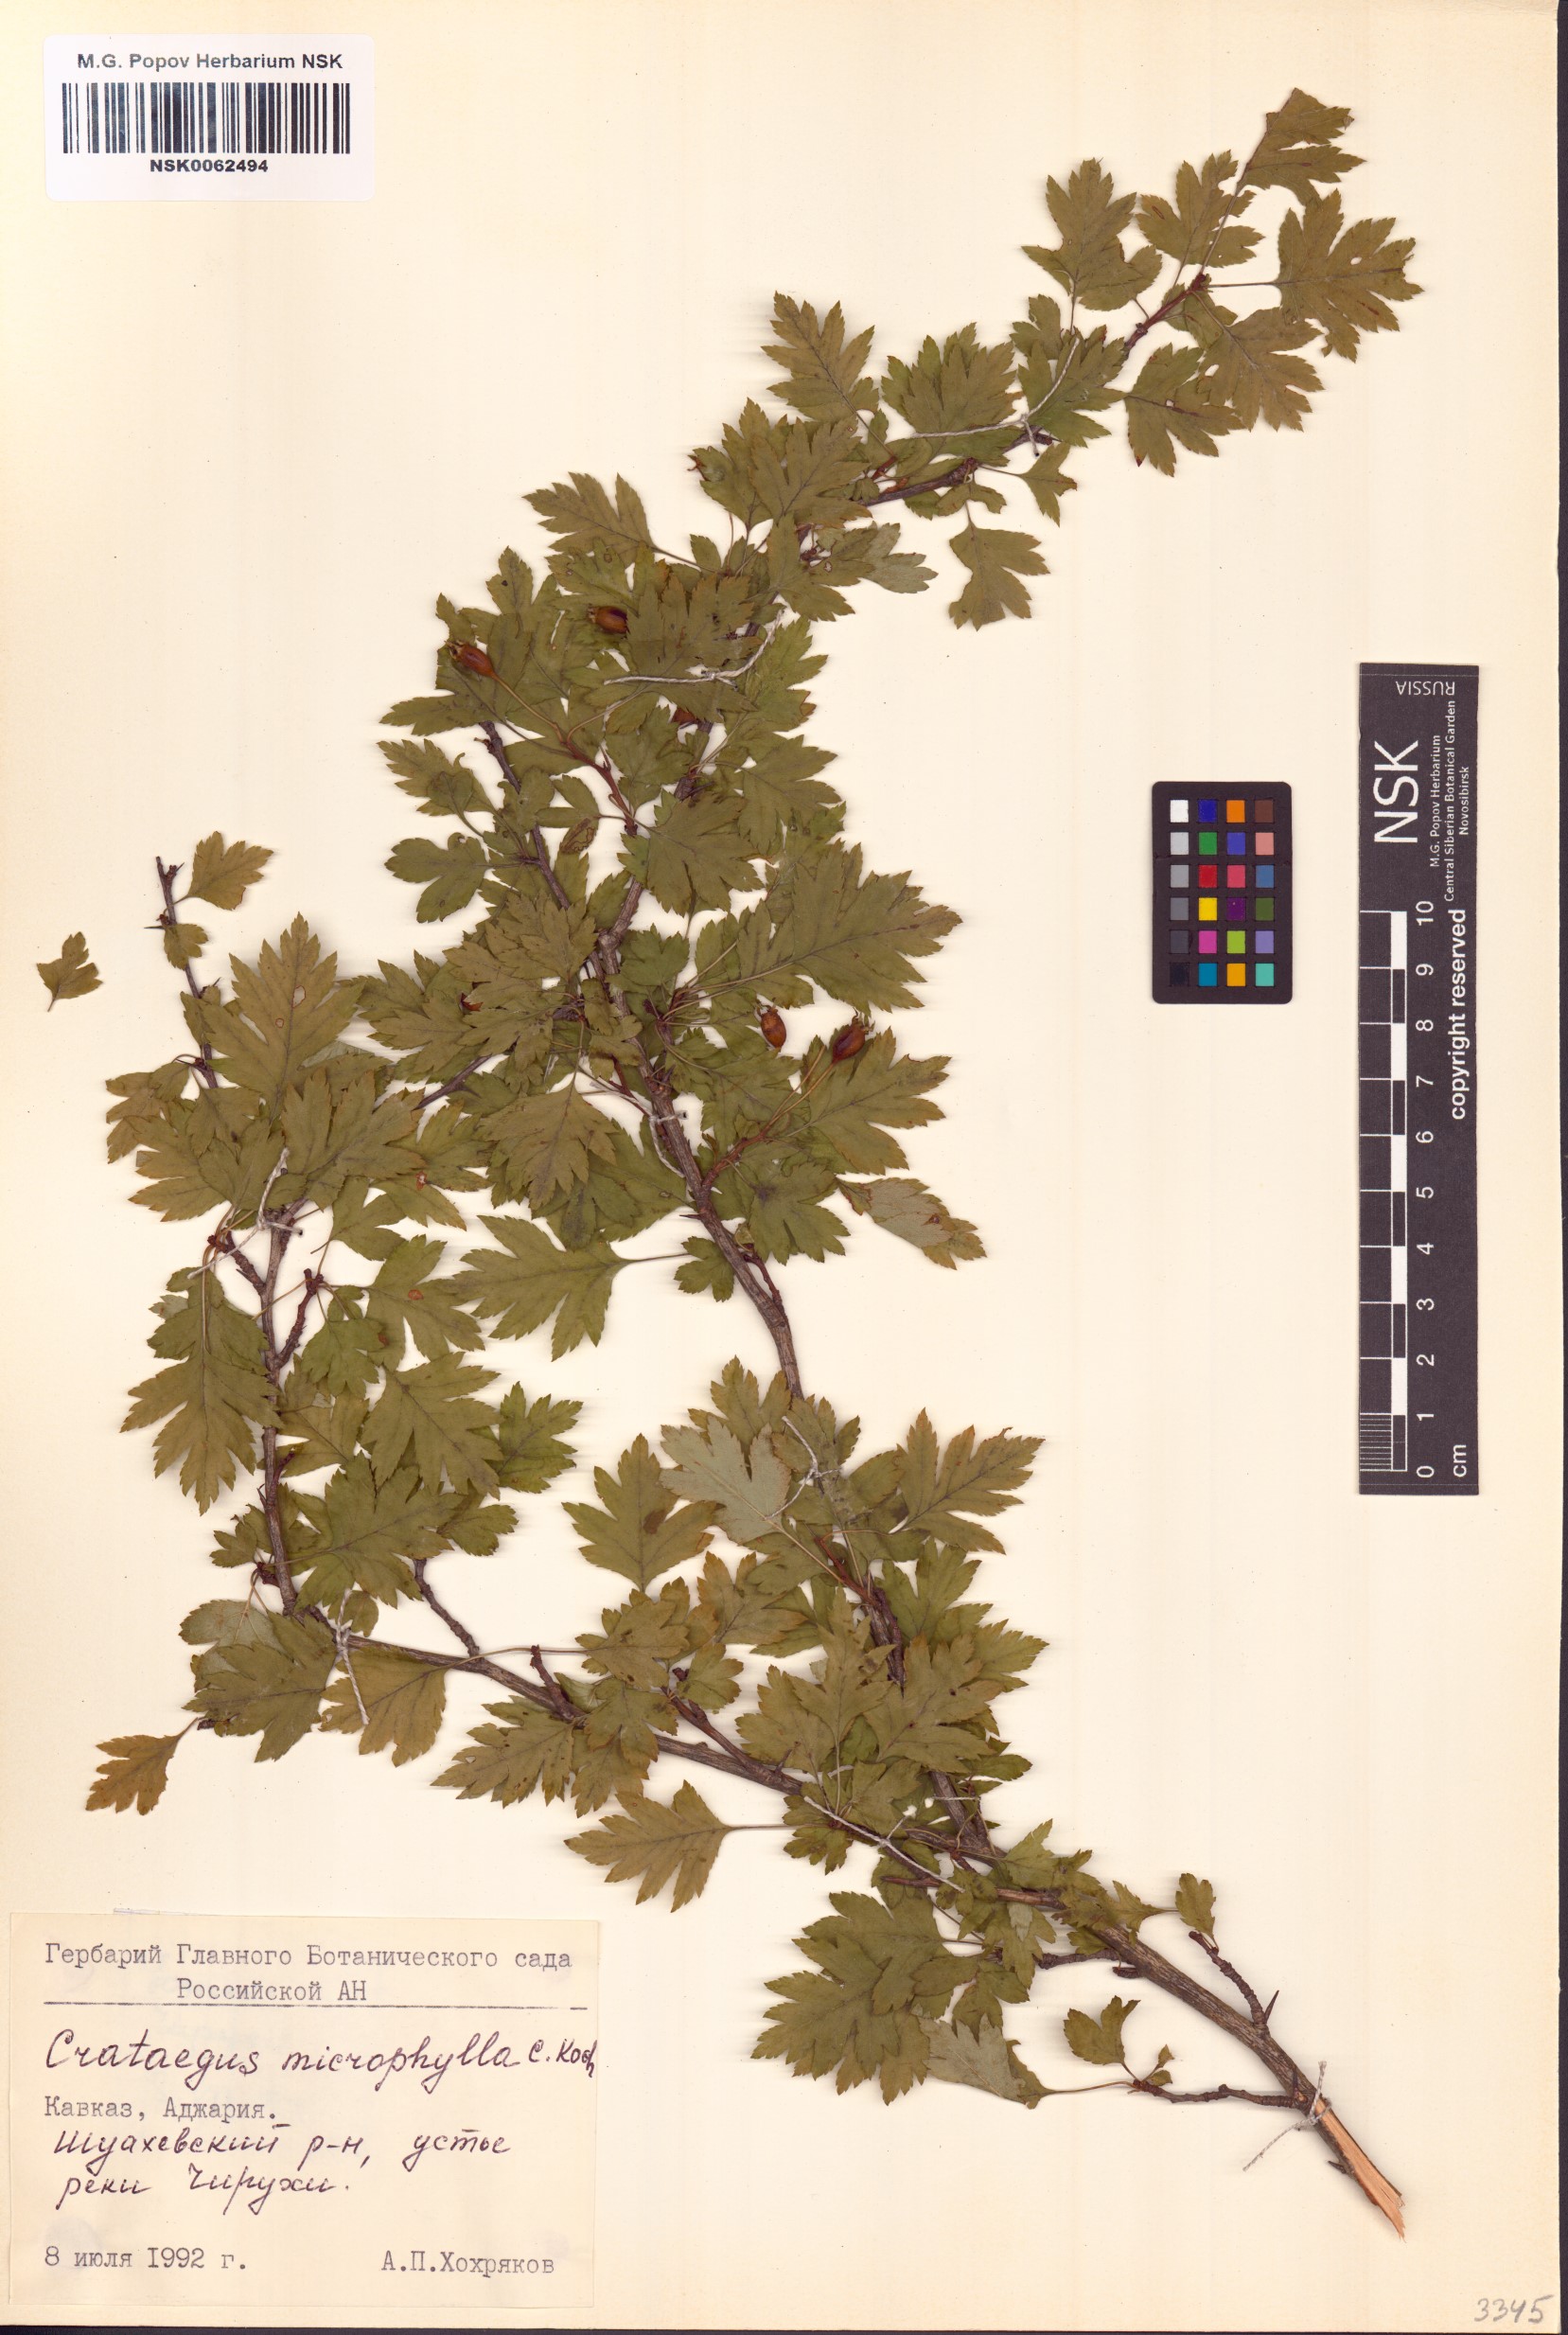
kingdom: Plantae
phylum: Tracheophyta
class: Magnoliopsida
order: Rosales
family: Rosaceae
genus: Crataegus
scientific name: Crataegus microphylla
